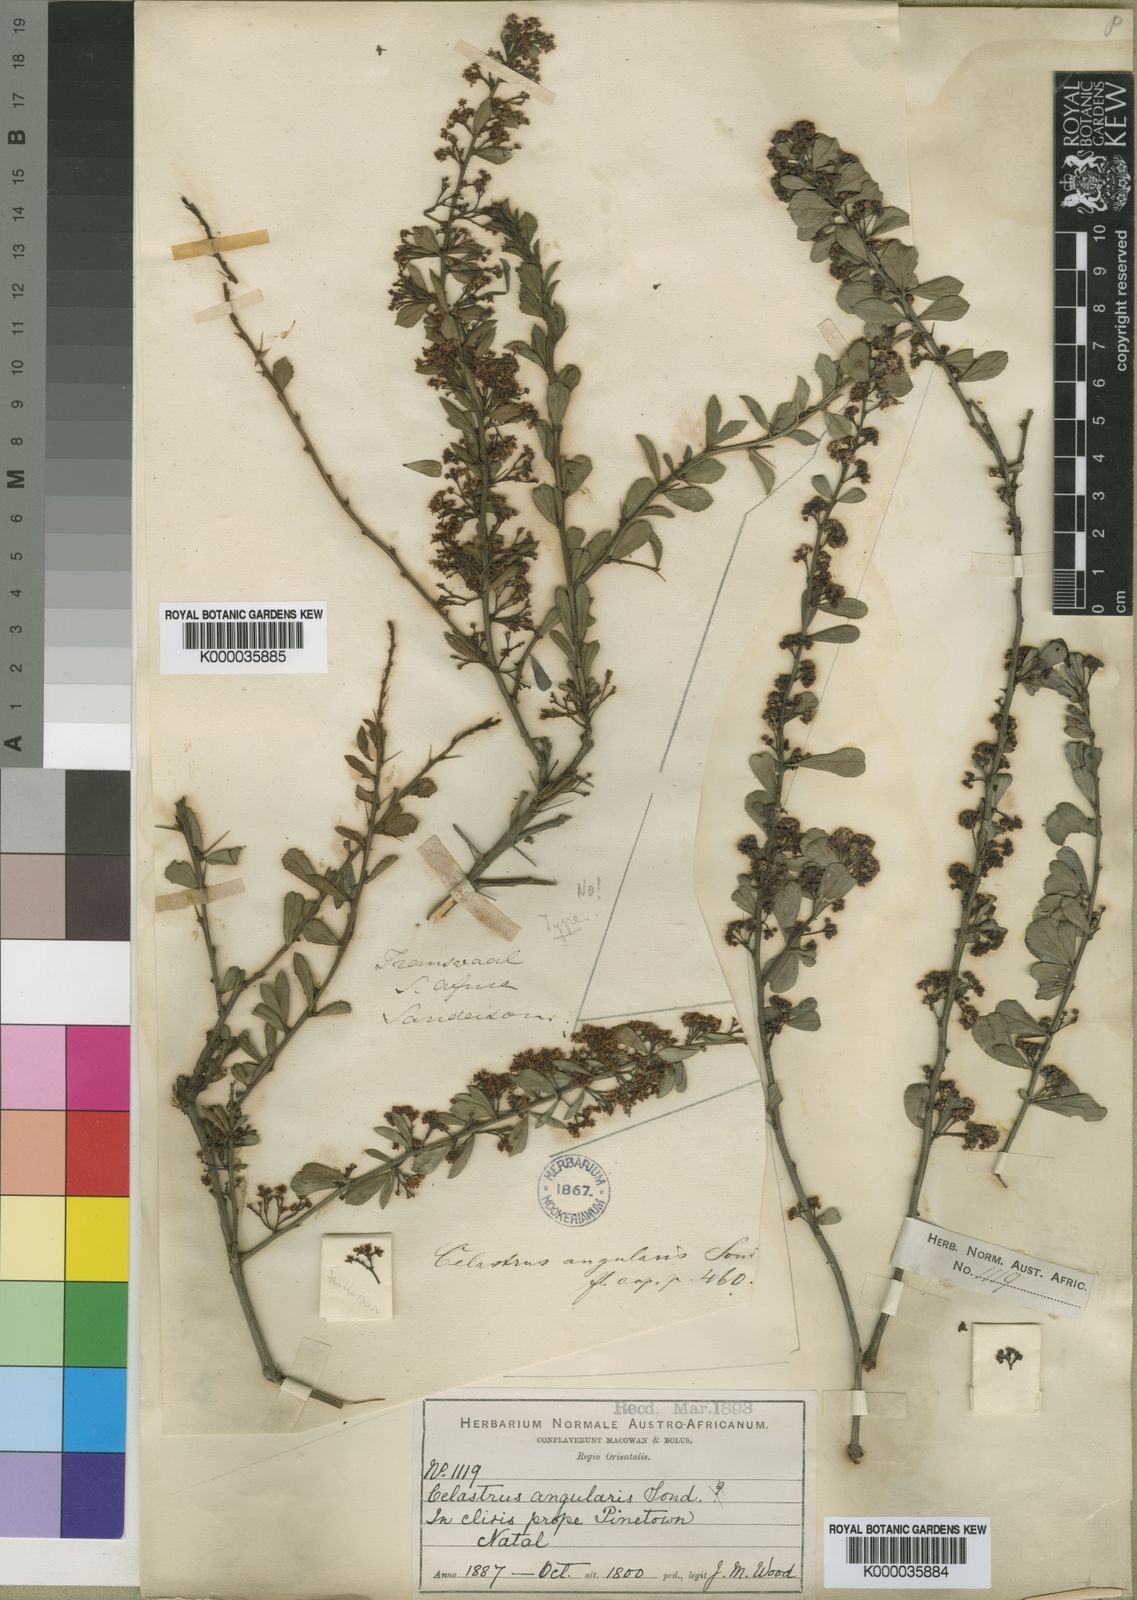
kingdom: Plantae
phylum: Tracheophyta
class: Magnoliopsida
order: Celastrales
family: Celastraceae
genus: Gymnosporia
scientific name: Gymnosporia heterophylla
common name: Angle-stem spikethorn
